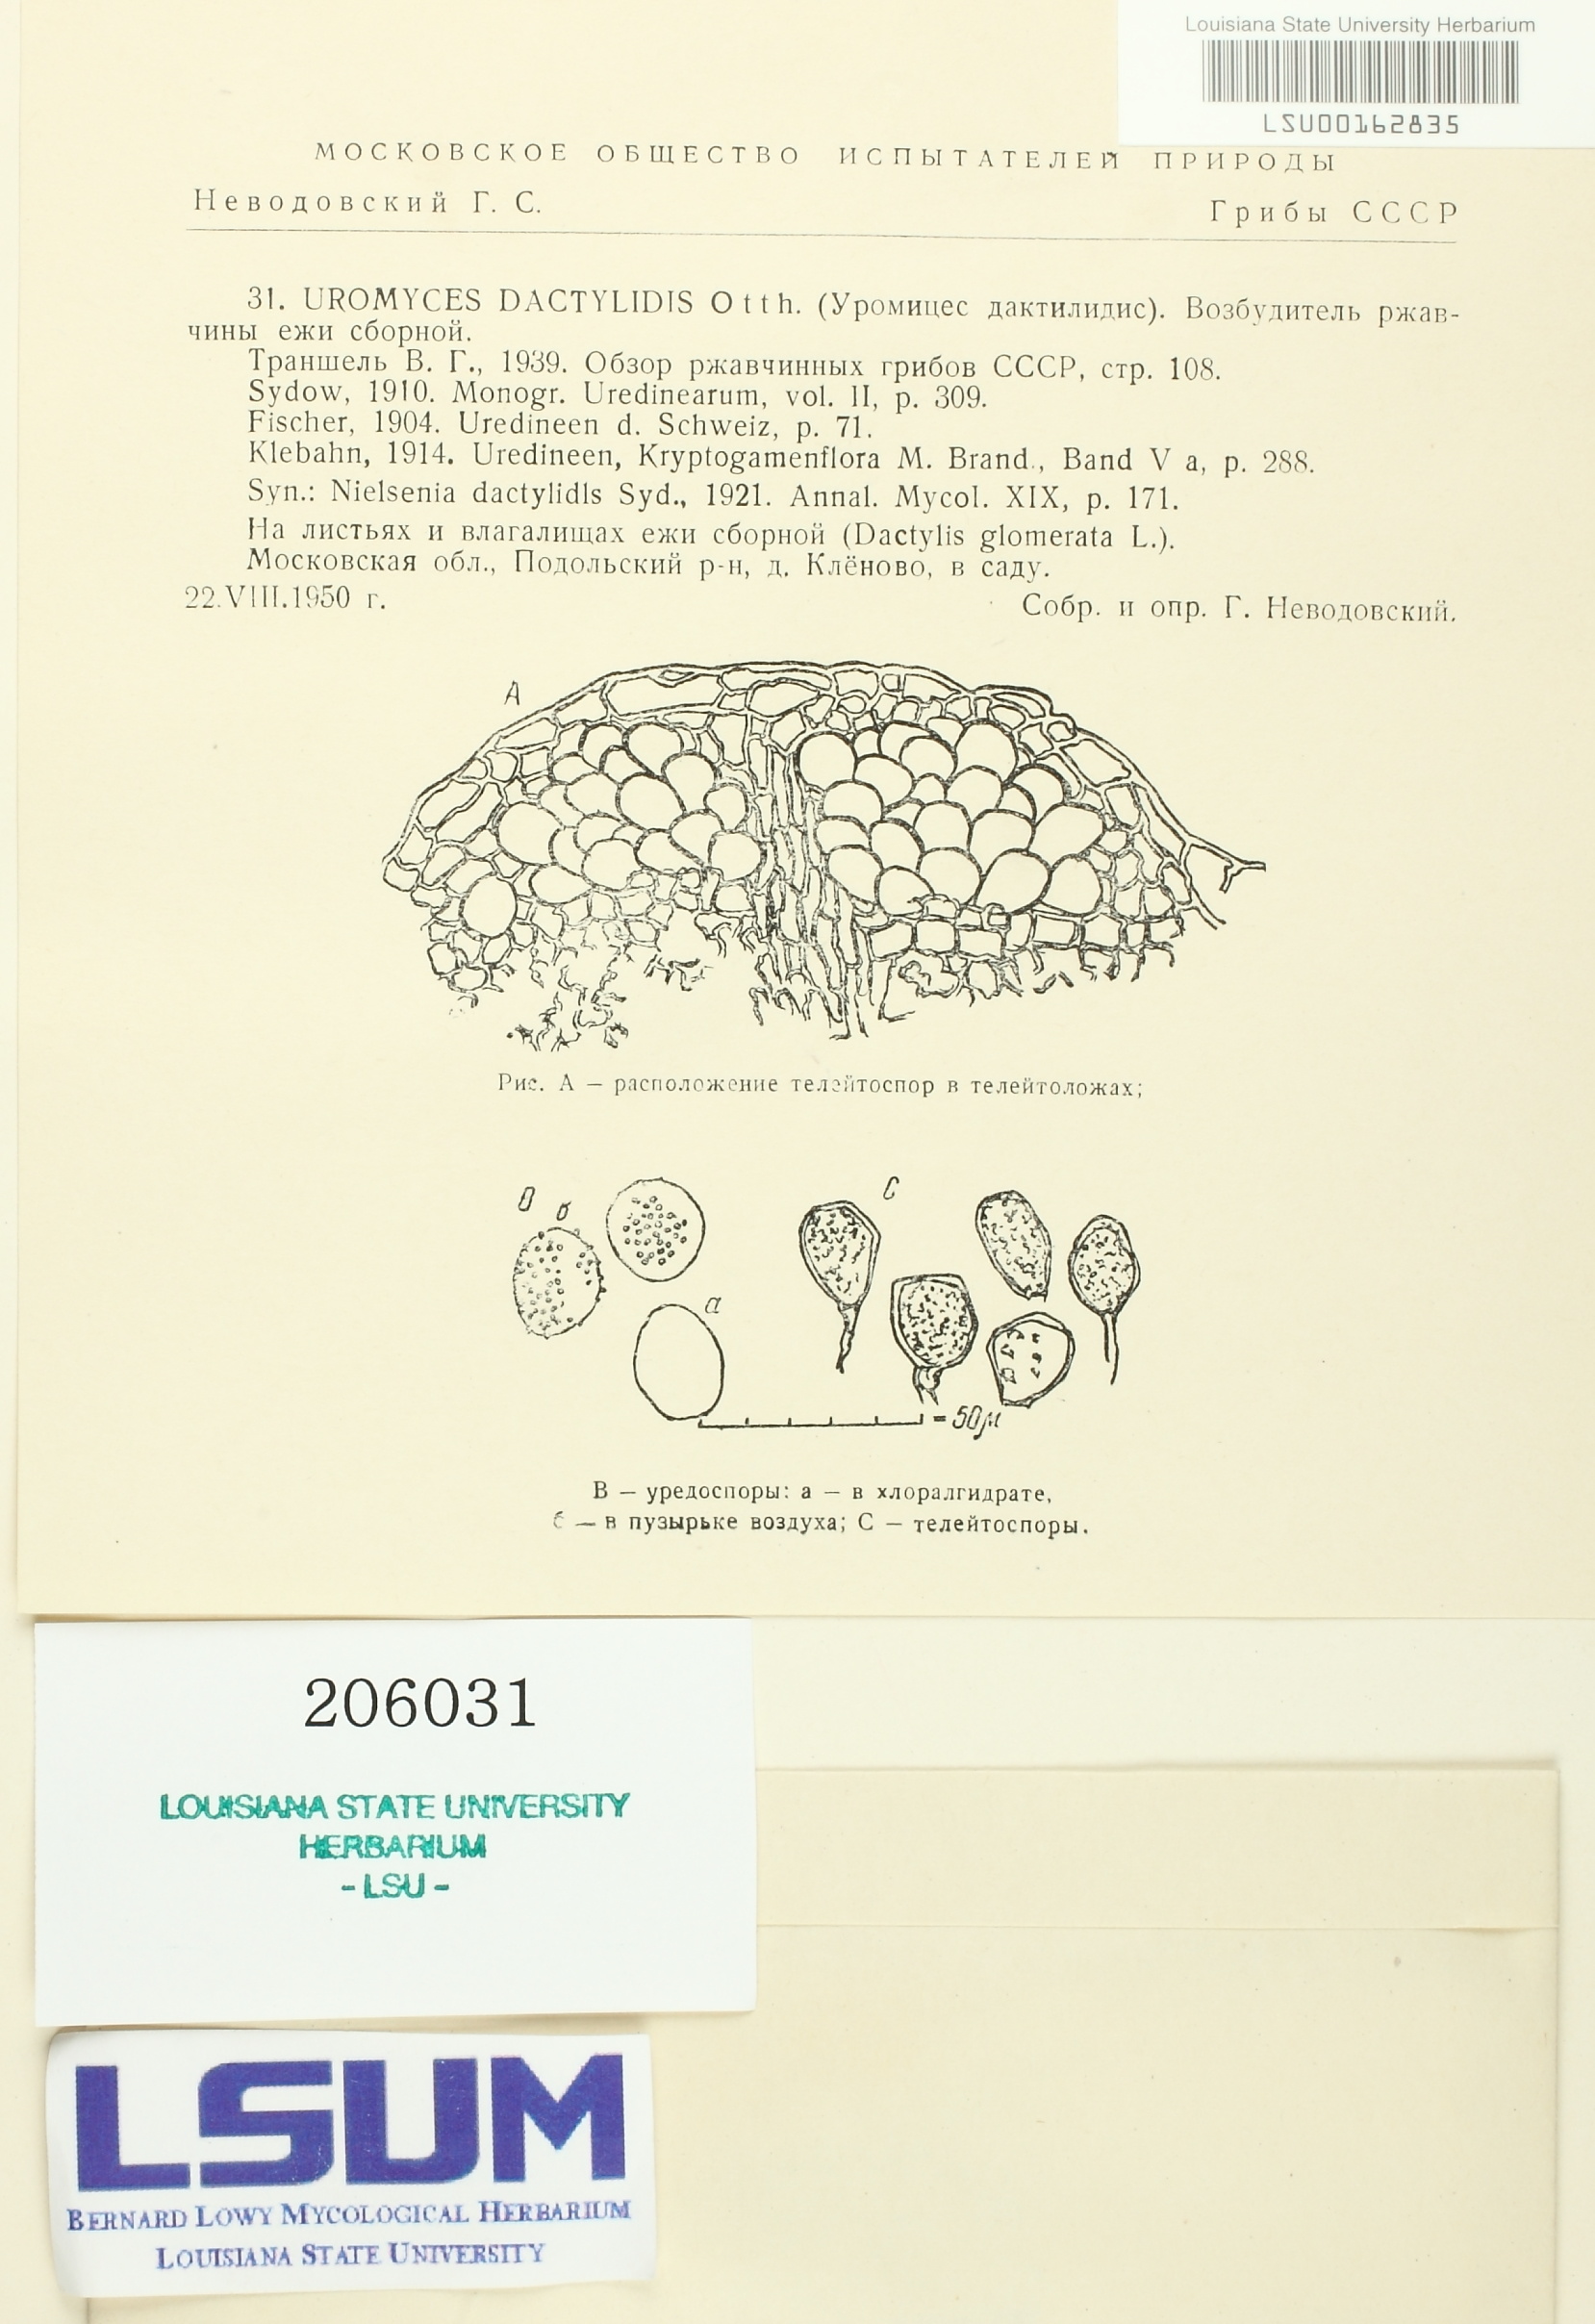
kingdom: Fungi
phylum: Basidiomycota
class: Pucciniomycetes
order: Pucciniales
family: Pucciniaceae
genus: Uromyces
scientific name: Uromyces dactylidis
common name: Celandine clustercup rust
